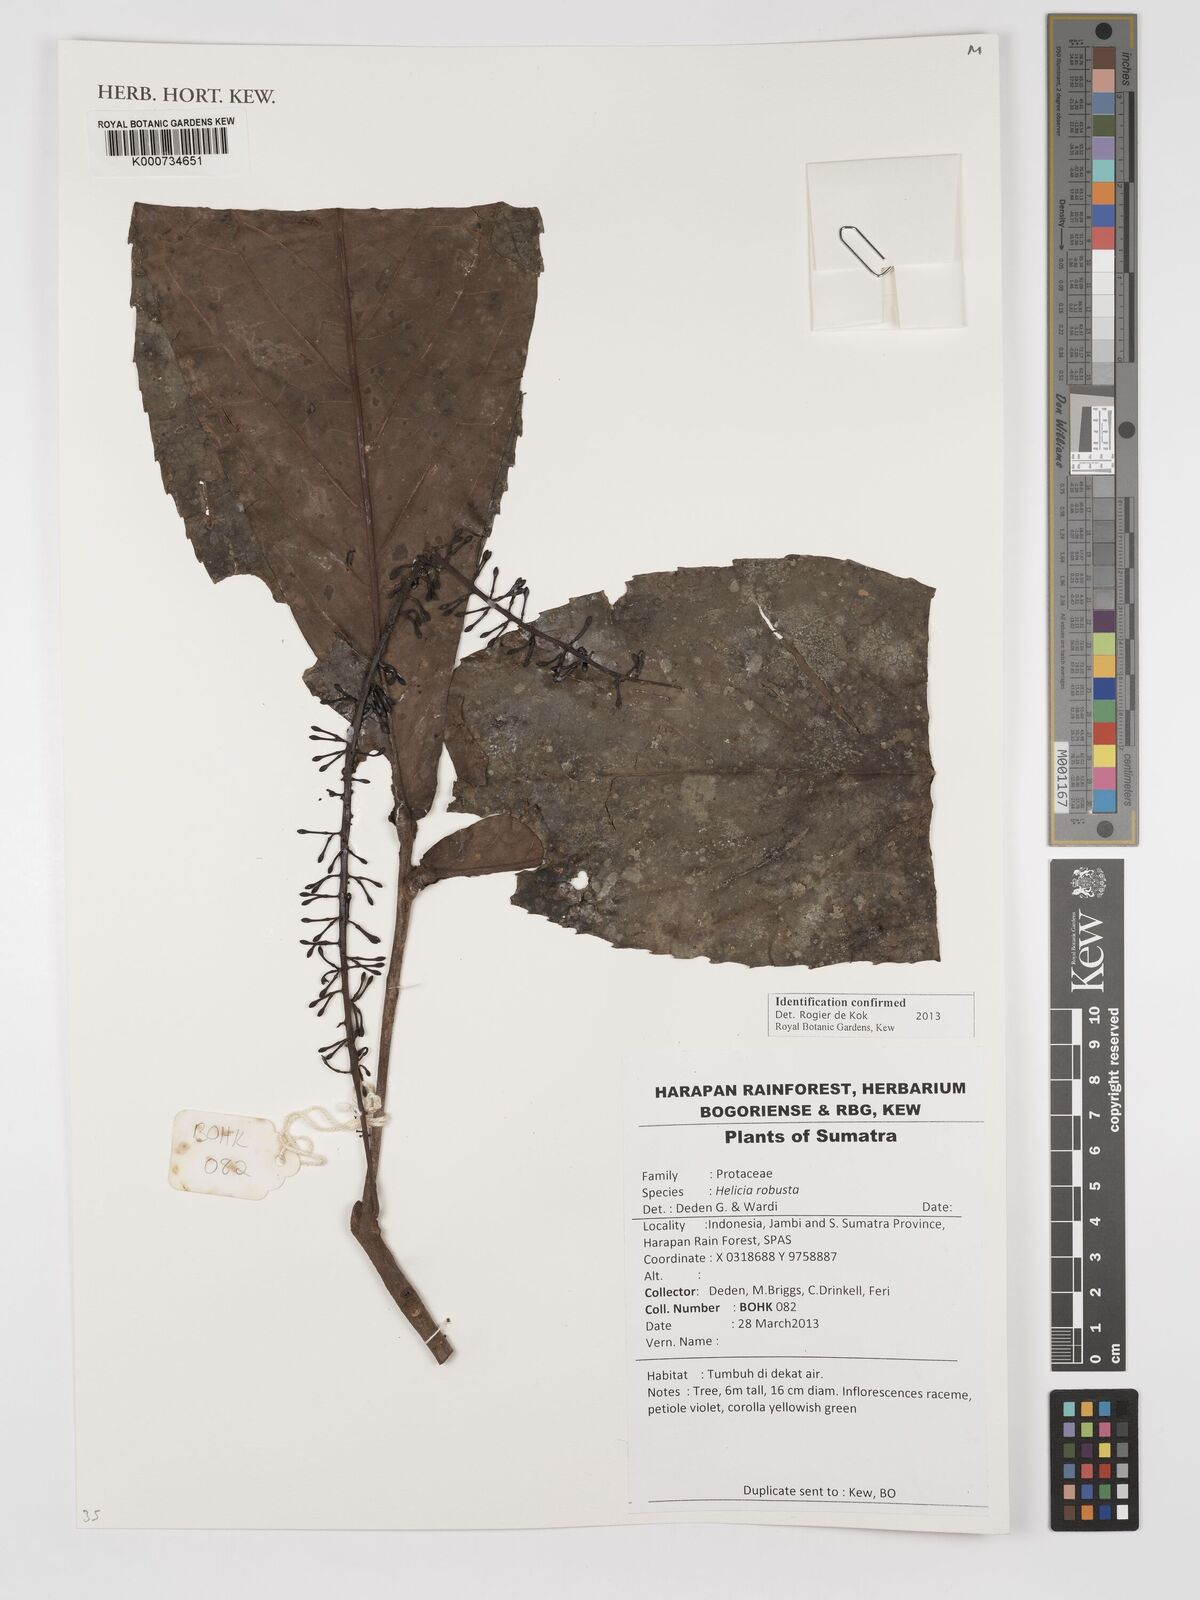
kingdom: Plantae
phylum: Tracheophyta
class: Magnoliopsida
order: Proteales
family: Proteaceae
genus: Helicia
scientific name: Helicia robusta
